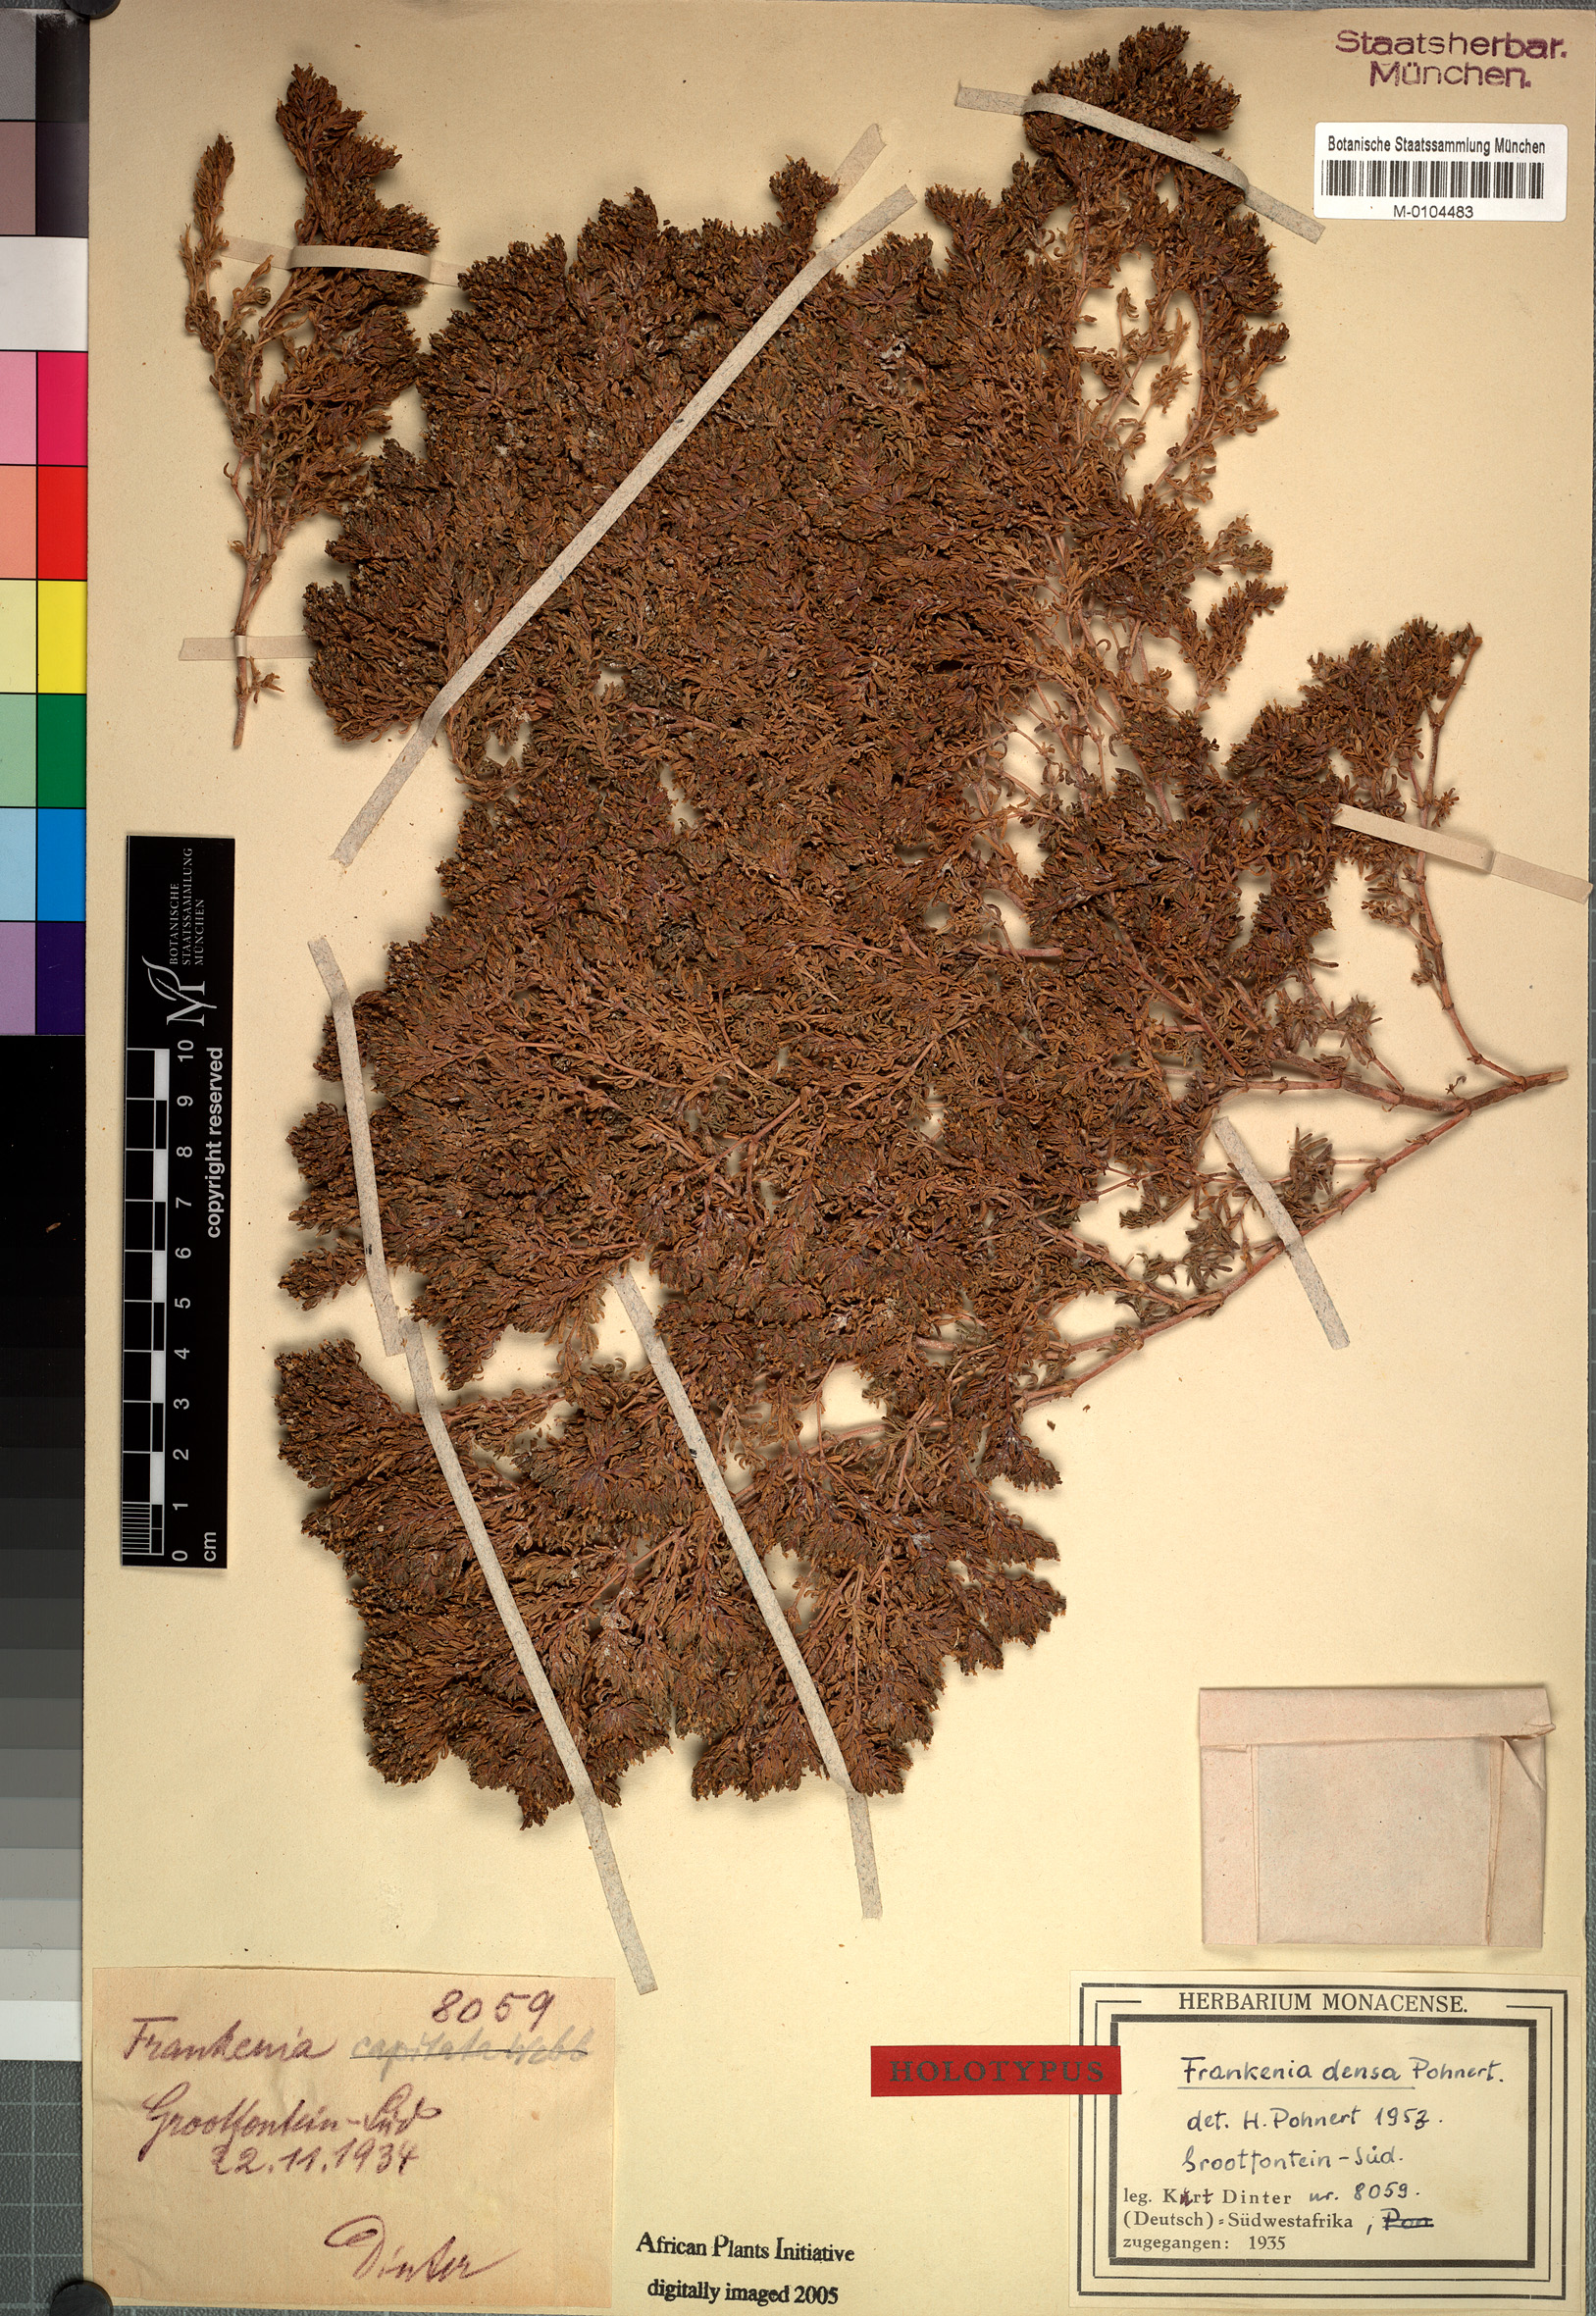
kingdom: Plantae
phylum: Tracheophyta
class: Magnoliopsida
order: Caryophyllales
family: Frankeniaceae
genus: Frankenia
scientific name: Frankenia pulverulenta
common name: European seaheath
